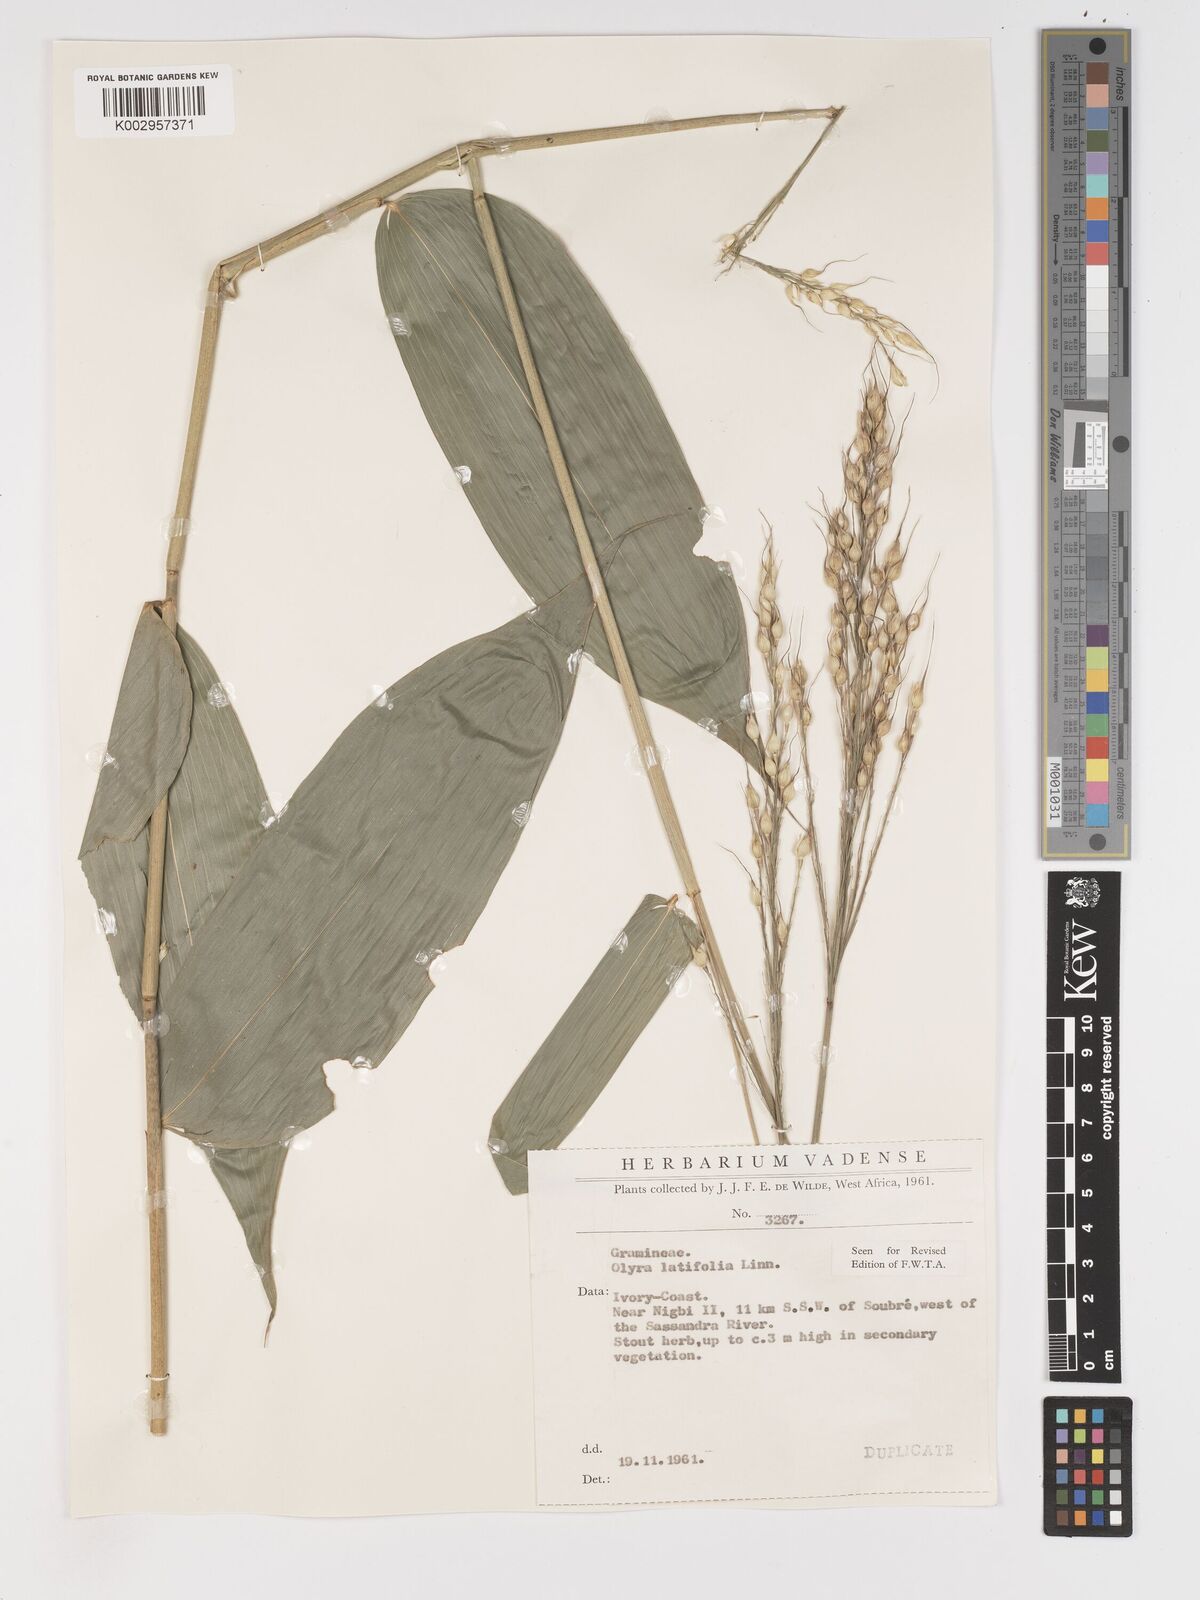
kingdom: Plantae
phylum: Tracheophyta
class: Liliopsida
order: Poales
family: Poaceae
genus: Olyra
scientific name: Olyra latifolia
